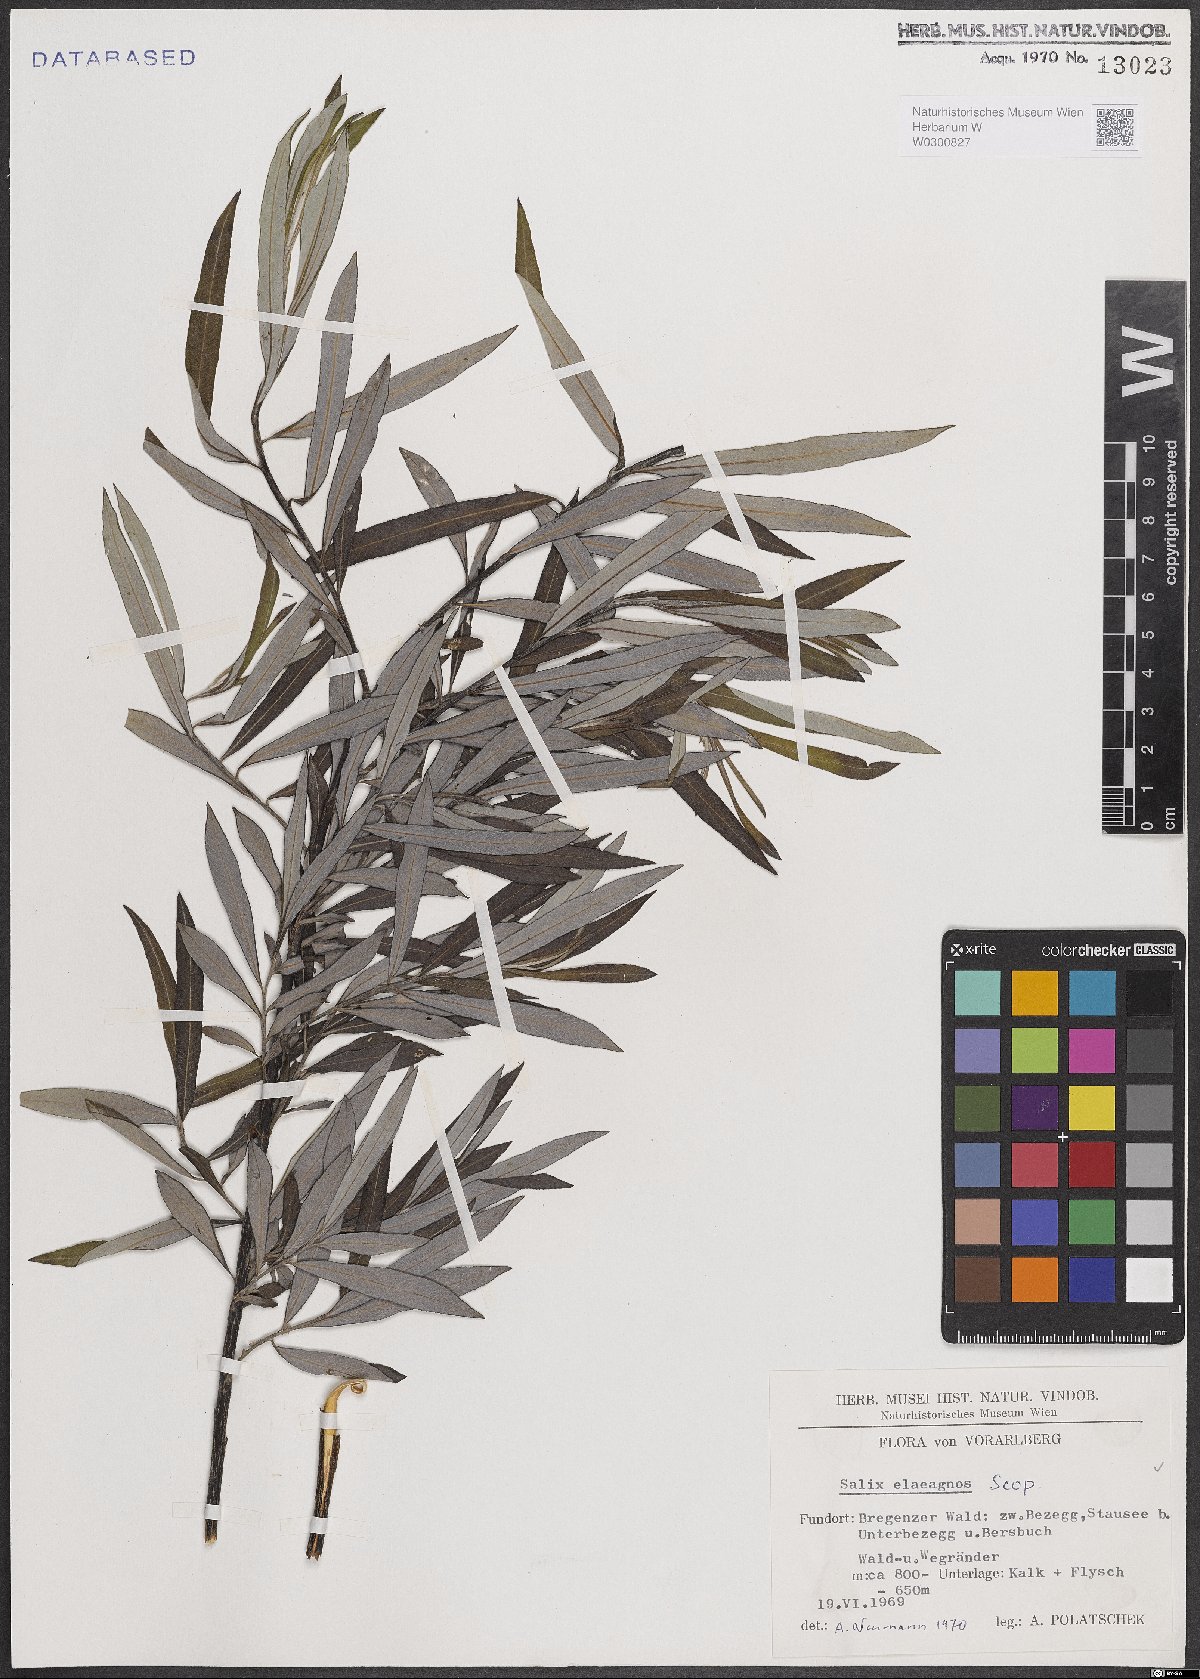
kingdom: Plantae
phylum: Tracheophyta
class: Magnoliopsida
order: Malpighiales
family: Salicaceae
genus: Salix
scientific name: Salix eleagnos
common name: Elaeagnus willow
